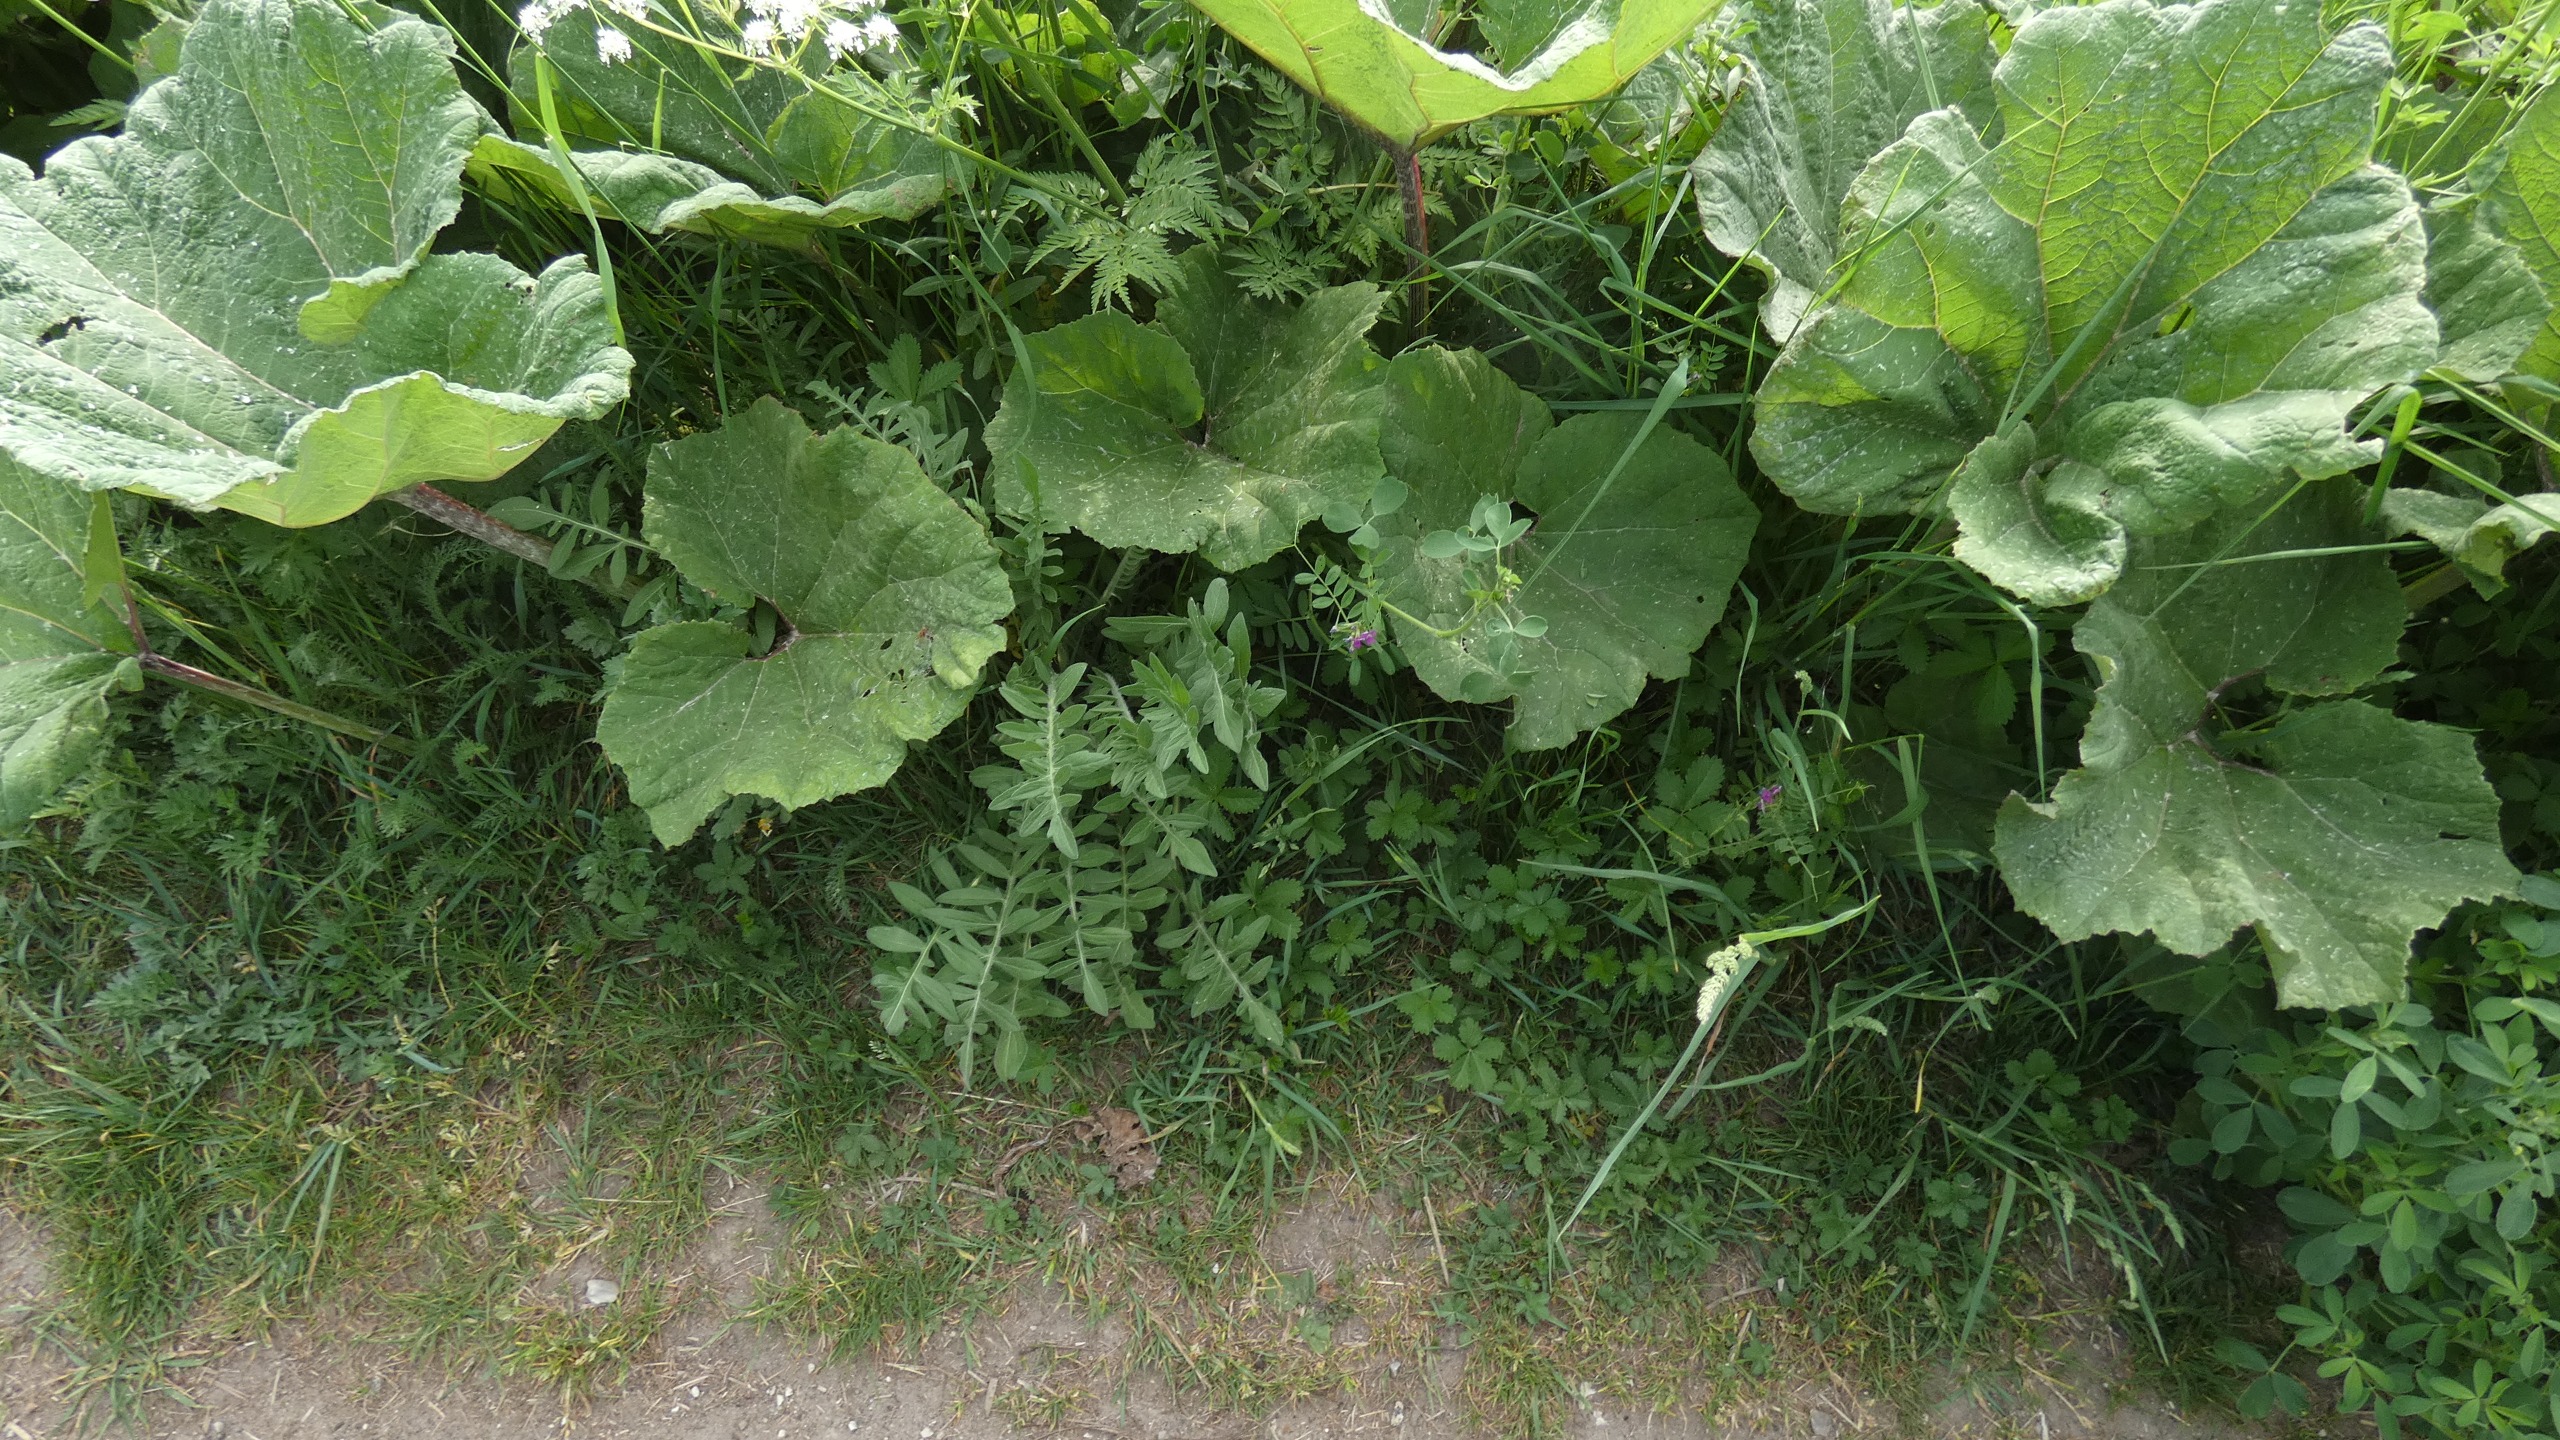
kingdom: Plantae
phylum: Tracheophyta
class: Magnoliopsida
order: Asterales
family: Asteraceae
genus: Petasites
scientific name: Petasites hybridus
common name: Rød hestehov
